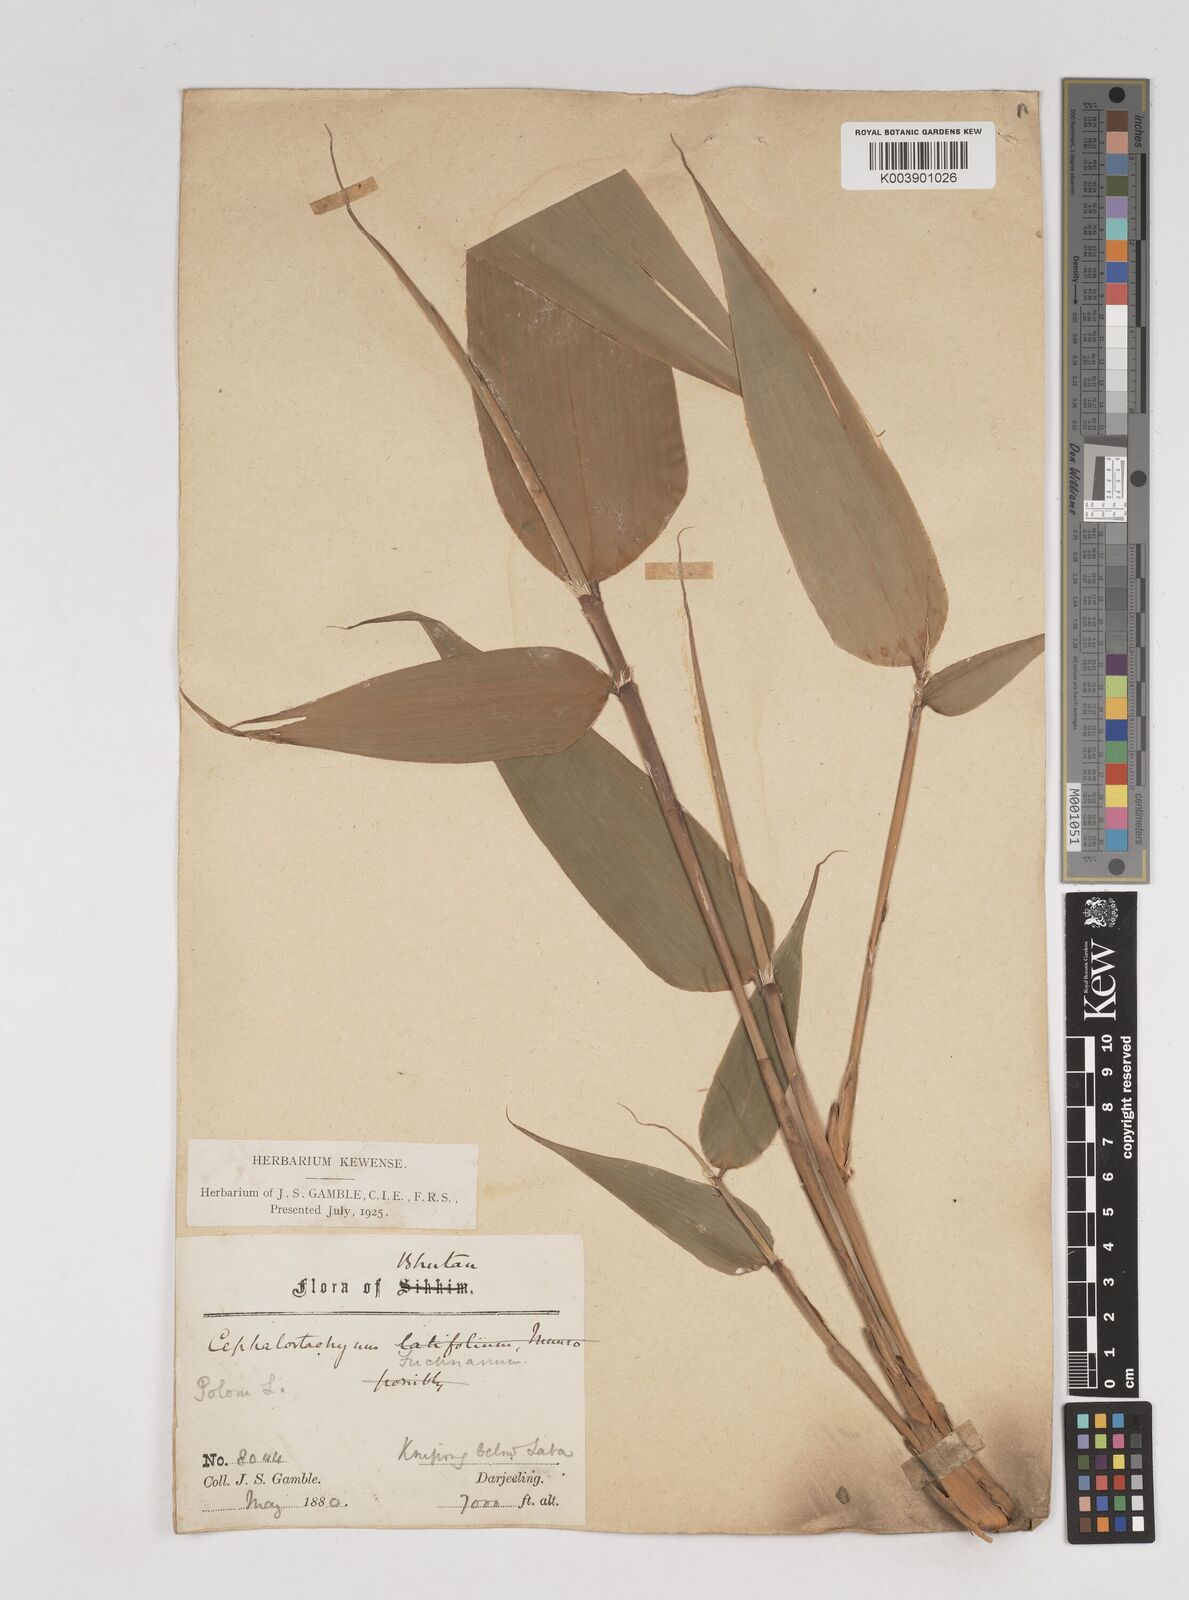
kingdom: Plantae
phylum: Tracheophyta
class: Liliopsida
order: Poales
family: Poaceae
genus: Cephalostachyum
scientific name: Cephalostachyum
